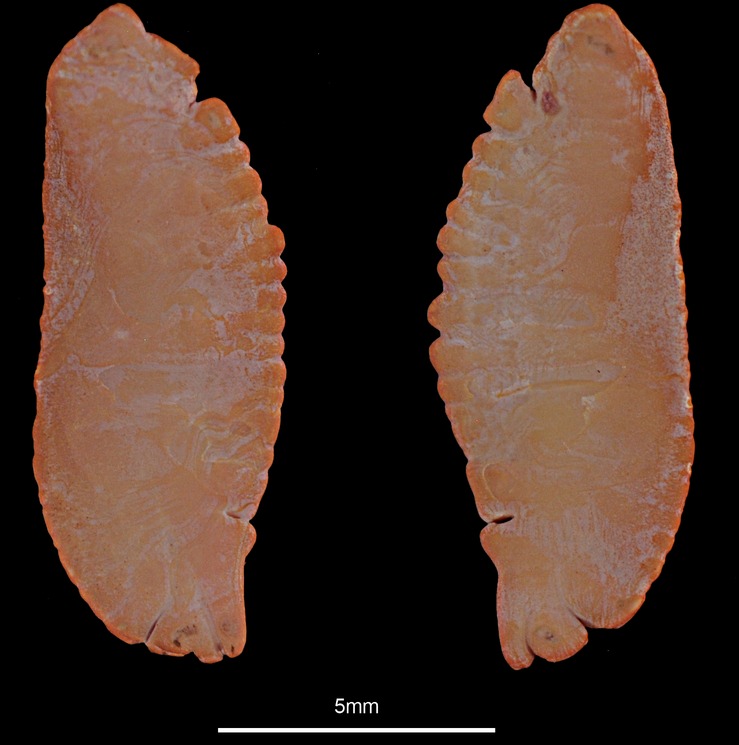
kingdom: Animalia
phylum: Chordata
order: Gadiformes
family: Lotidae
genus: Molva
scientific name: Molva molva
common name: Ling
